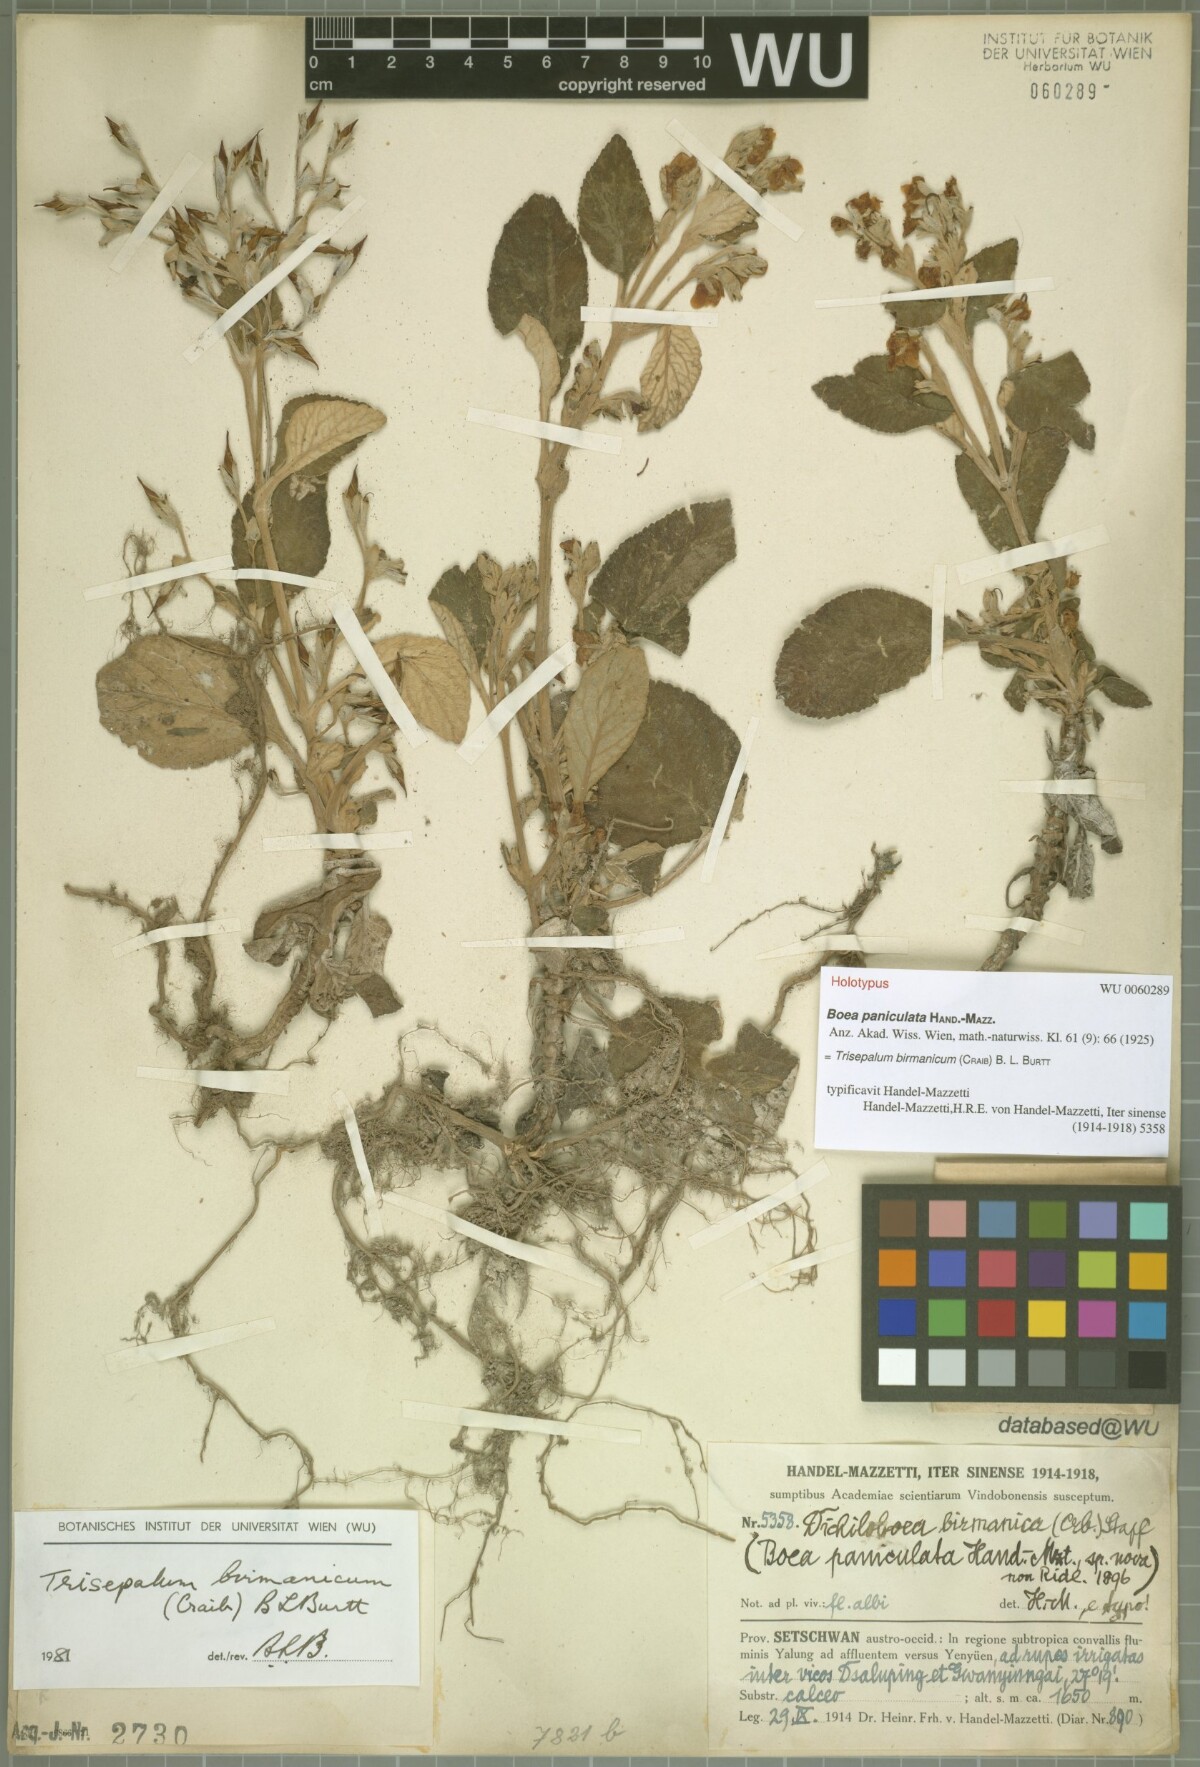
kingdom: Plantae
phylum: Tracheophyta
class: Magnoliopsida
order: Lamiales
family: Gesneriaceae
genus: Paraboea
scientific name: Paraboea birmanica
